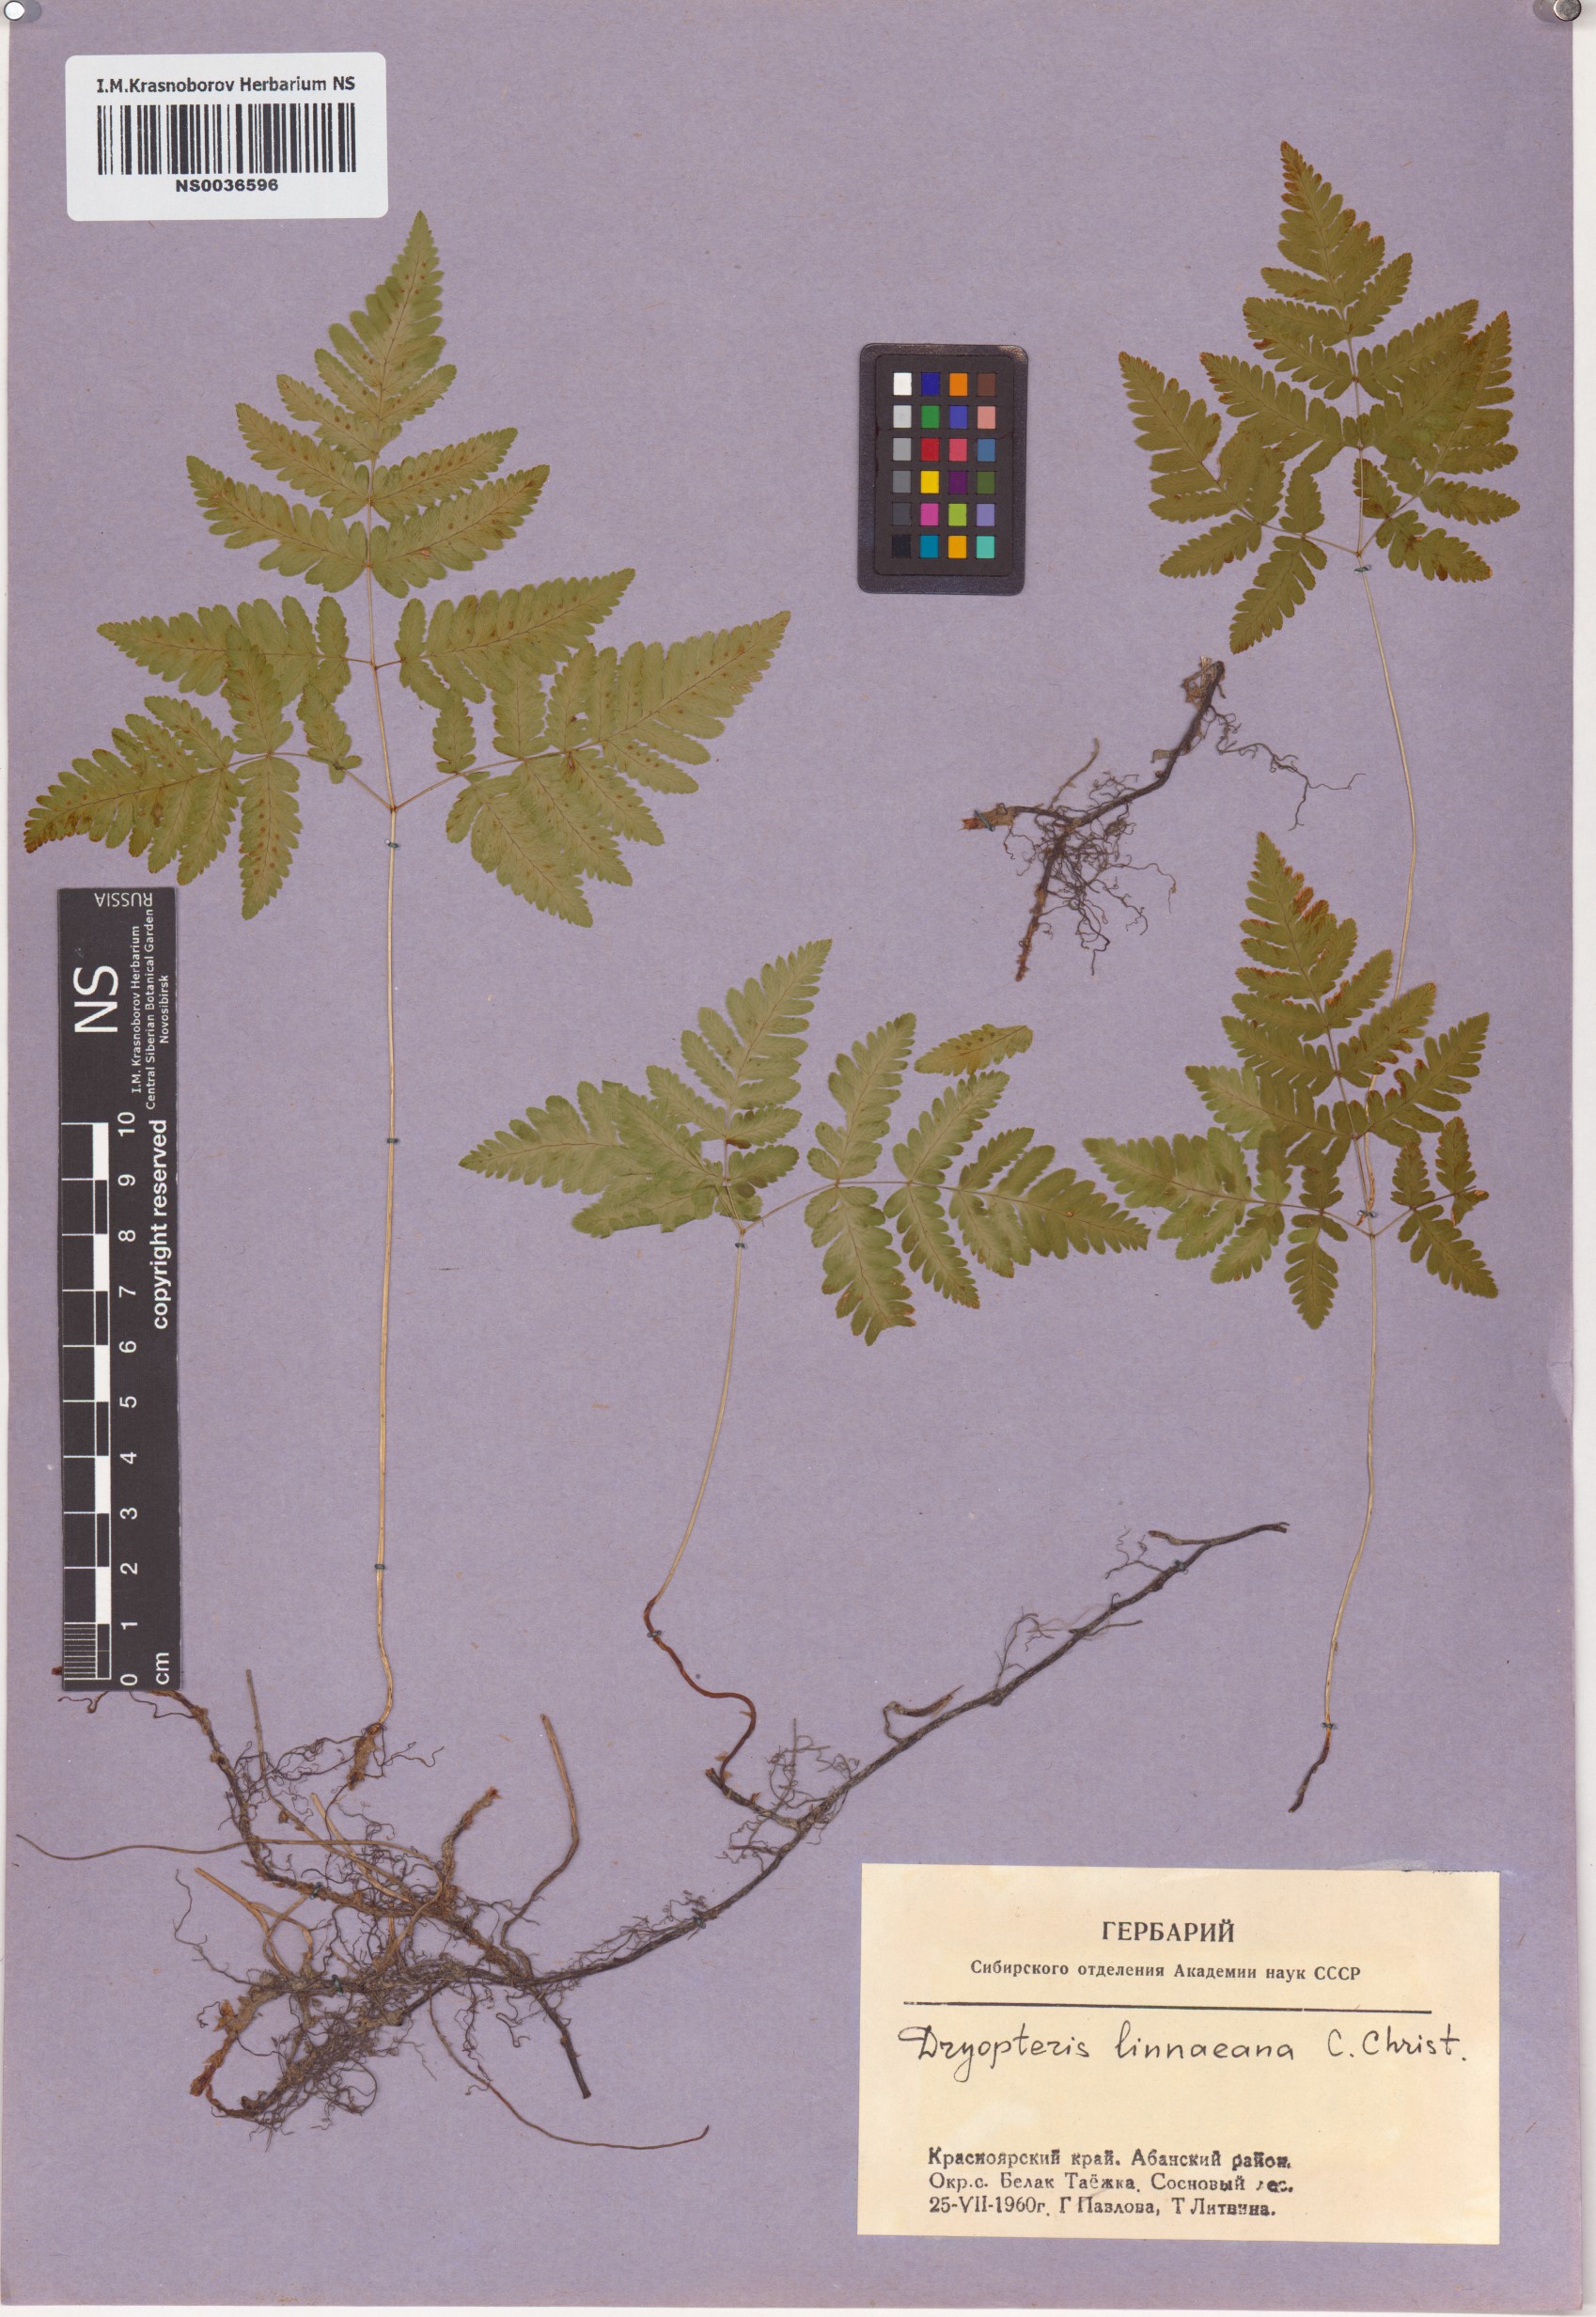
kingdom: Plantae
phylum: Tracheophyta
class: Polypodiopsida
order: Polypodiales
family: Cystopteridaceae
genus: Gymnocarpium
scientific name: Gymnocarpium dryopteris
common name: Oak fern
